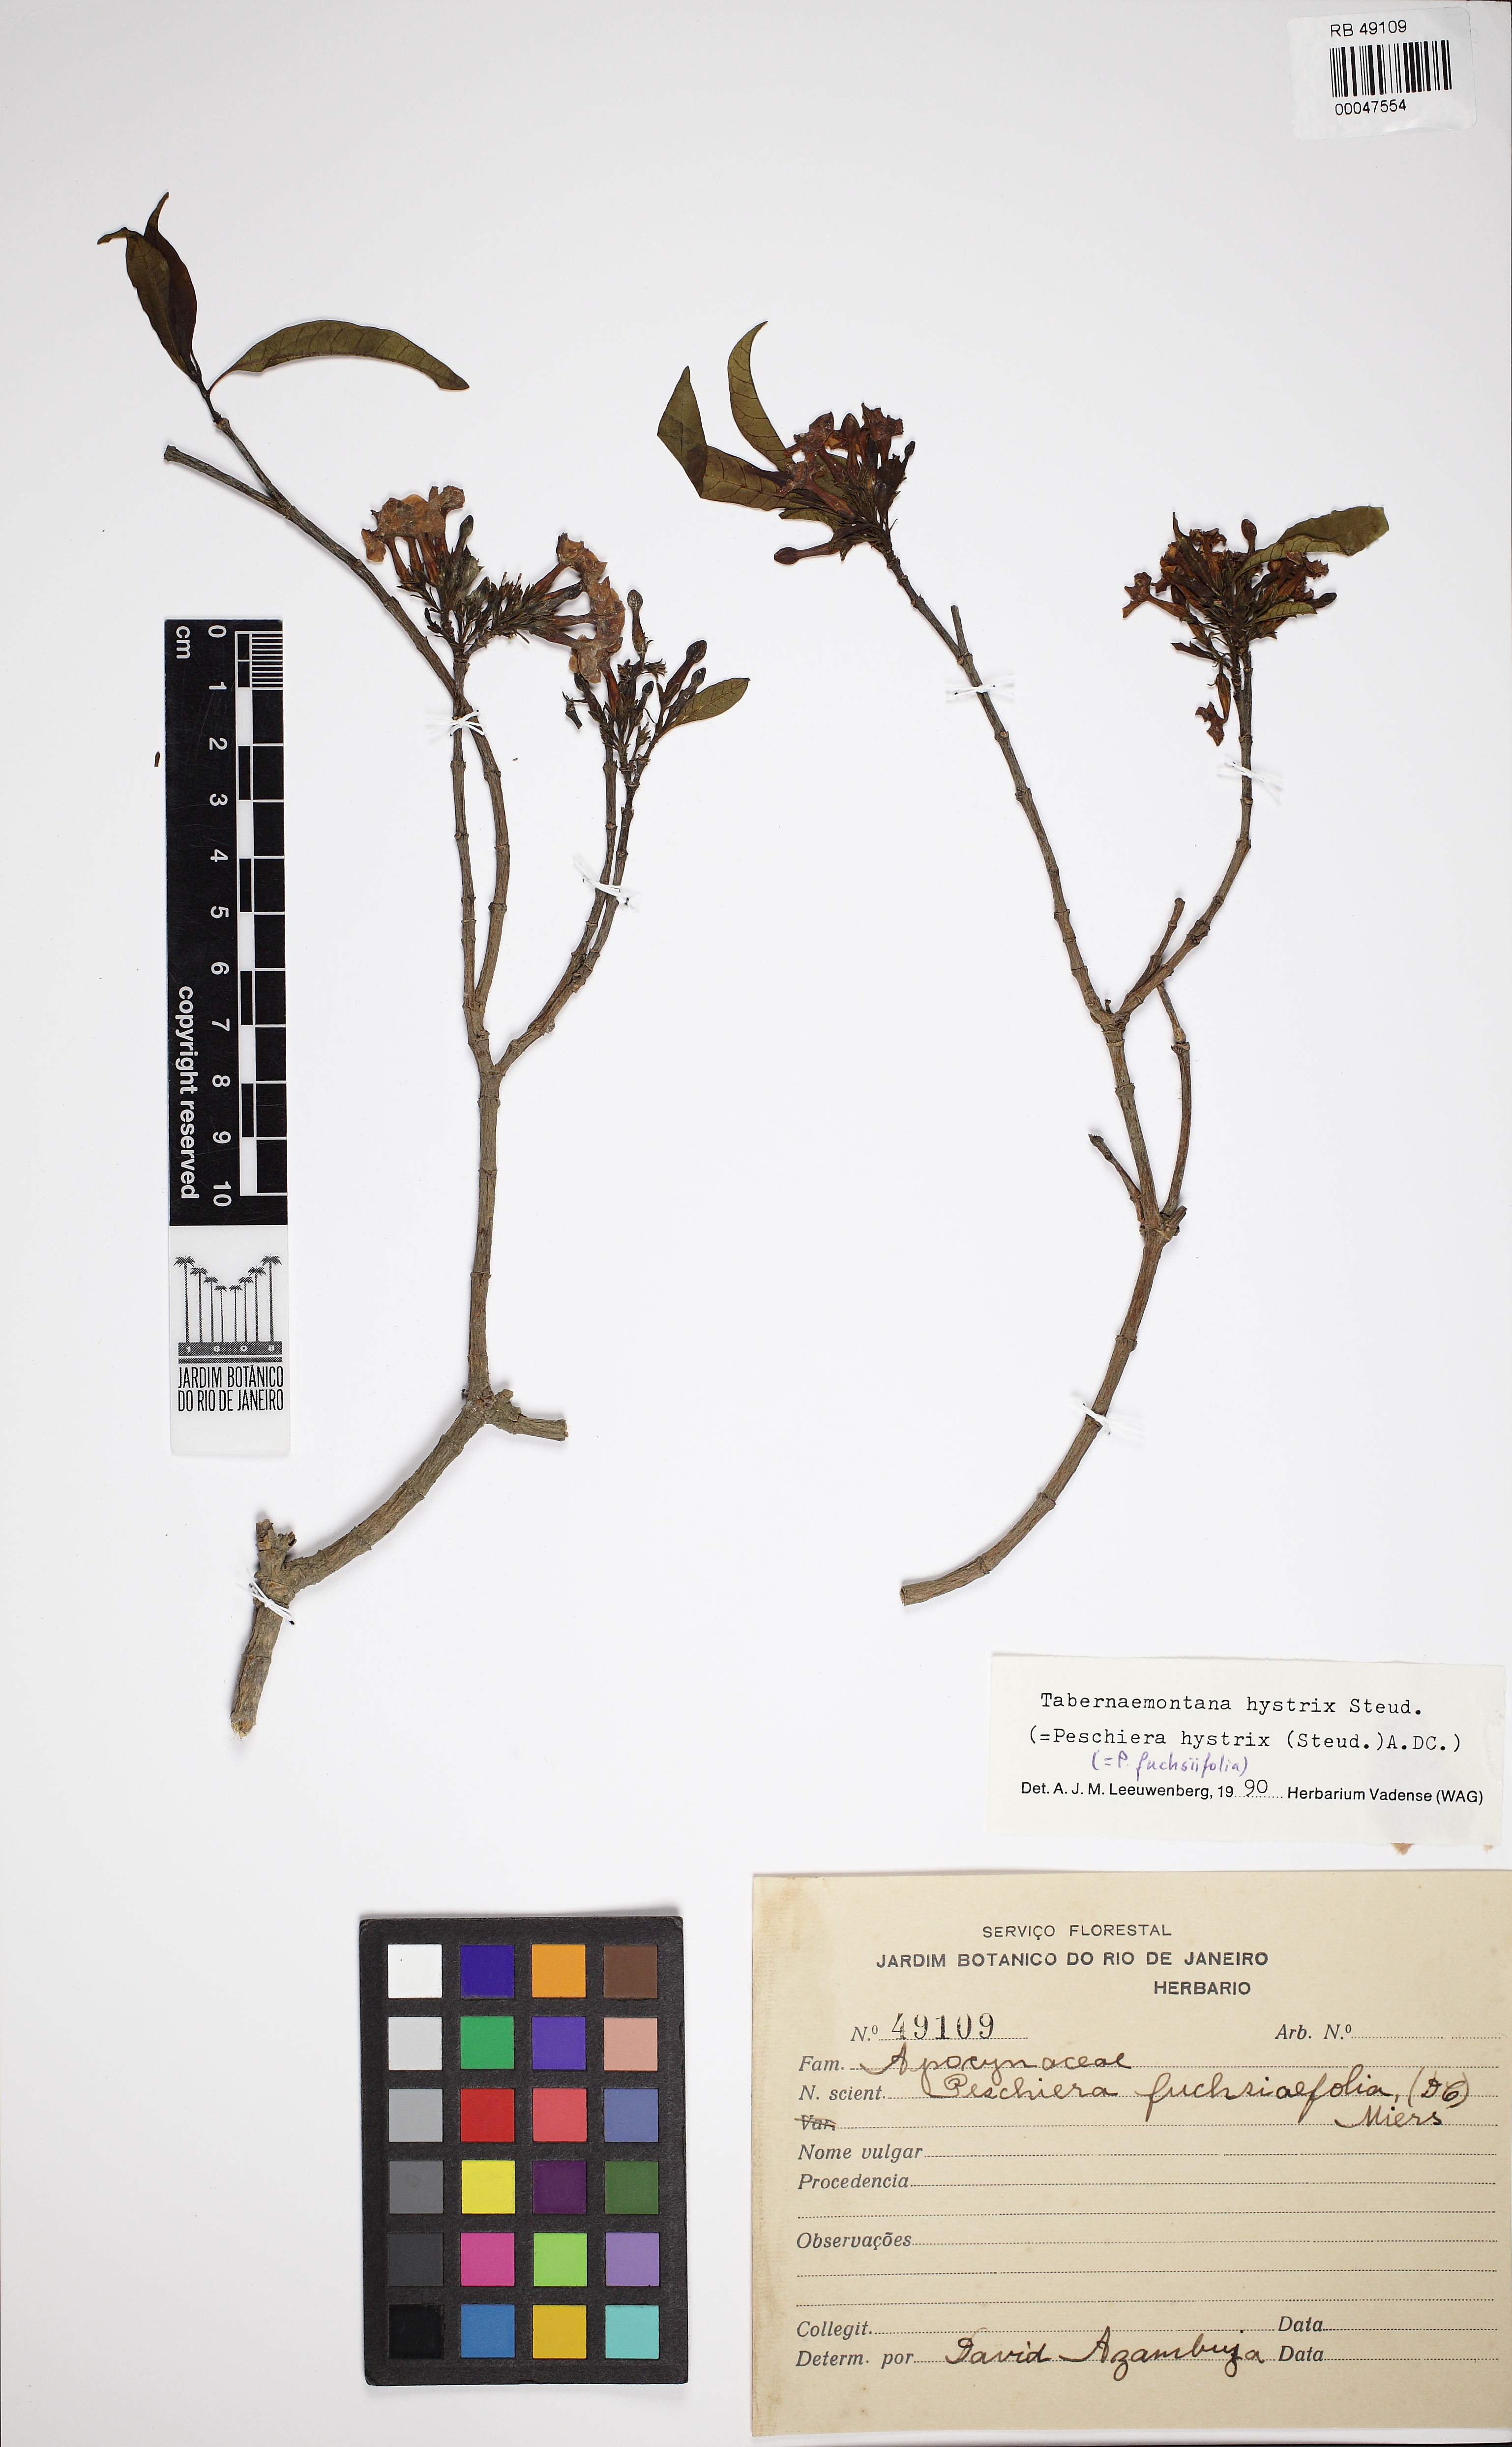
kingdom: Plantae
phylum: Tracheophyta
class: Magnoliopsida
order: Gentianales
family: Apocynaceae
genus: Tabernaemontana
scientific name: Tabernaemontana hystrix
